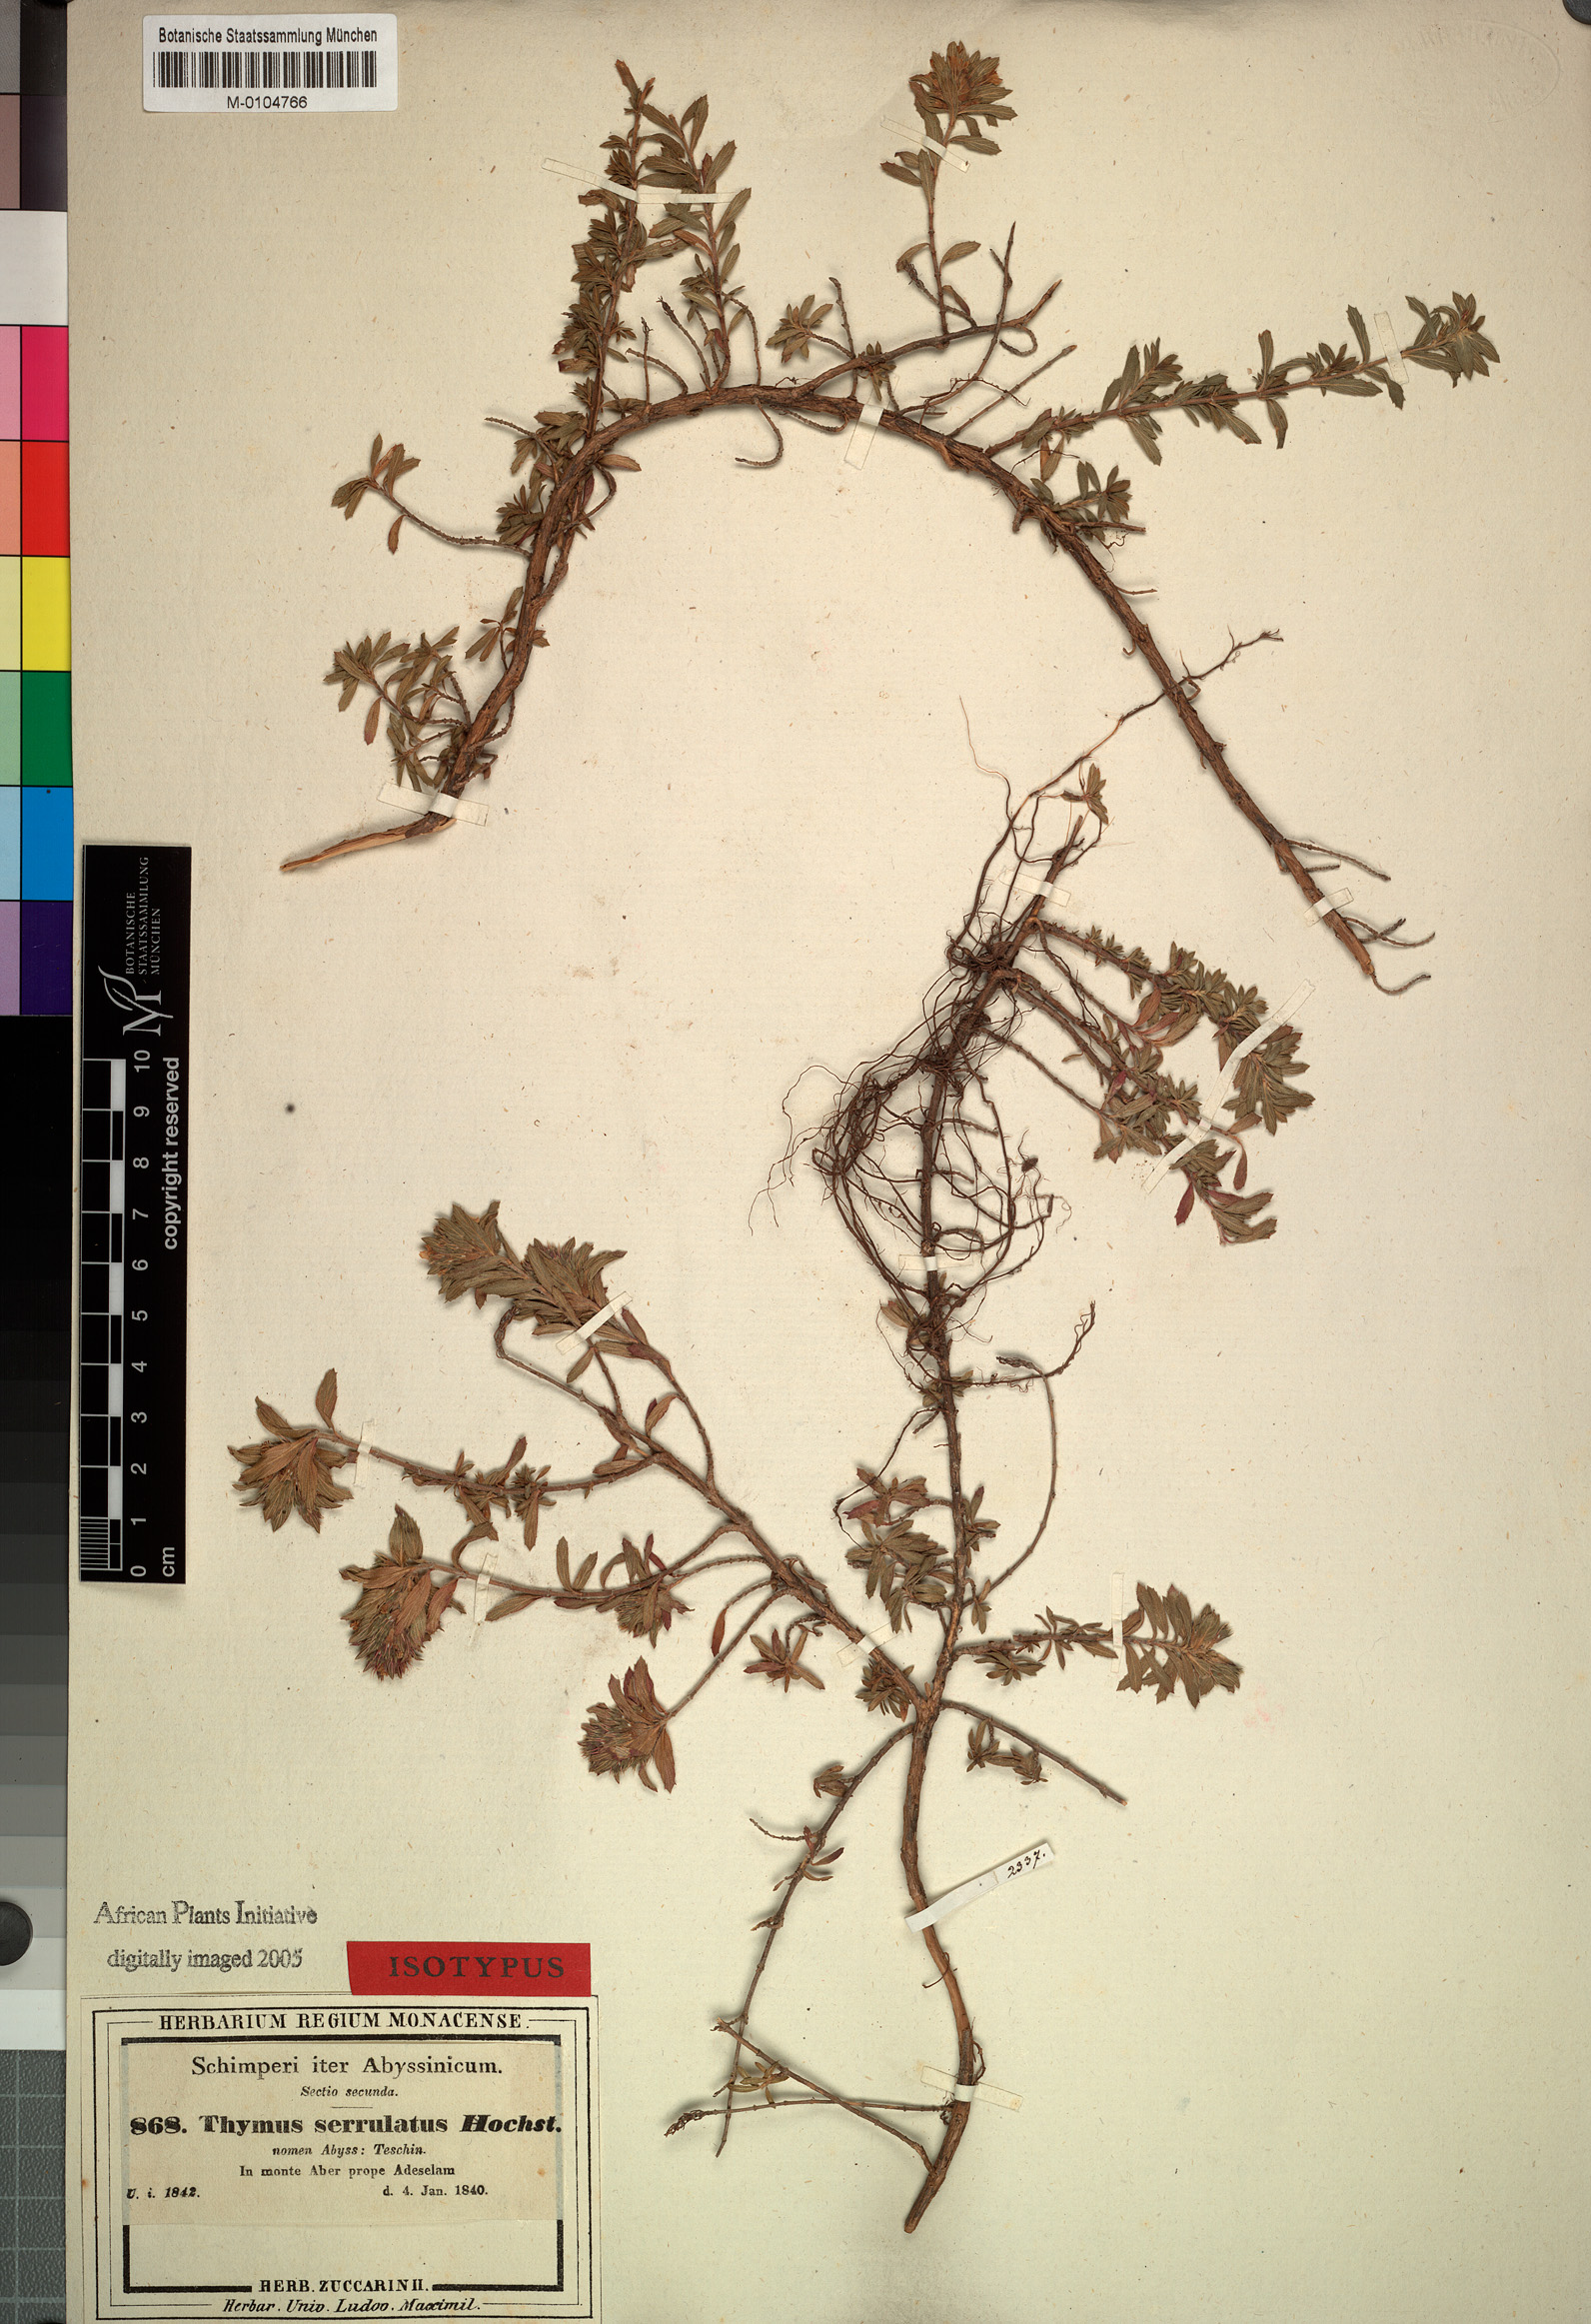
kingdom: Plantae
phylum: Tracheophyta
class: Magnoliopsida
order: Lamiales
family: Lamiaceae
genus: Thymus
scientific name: Thymus serrulatus
